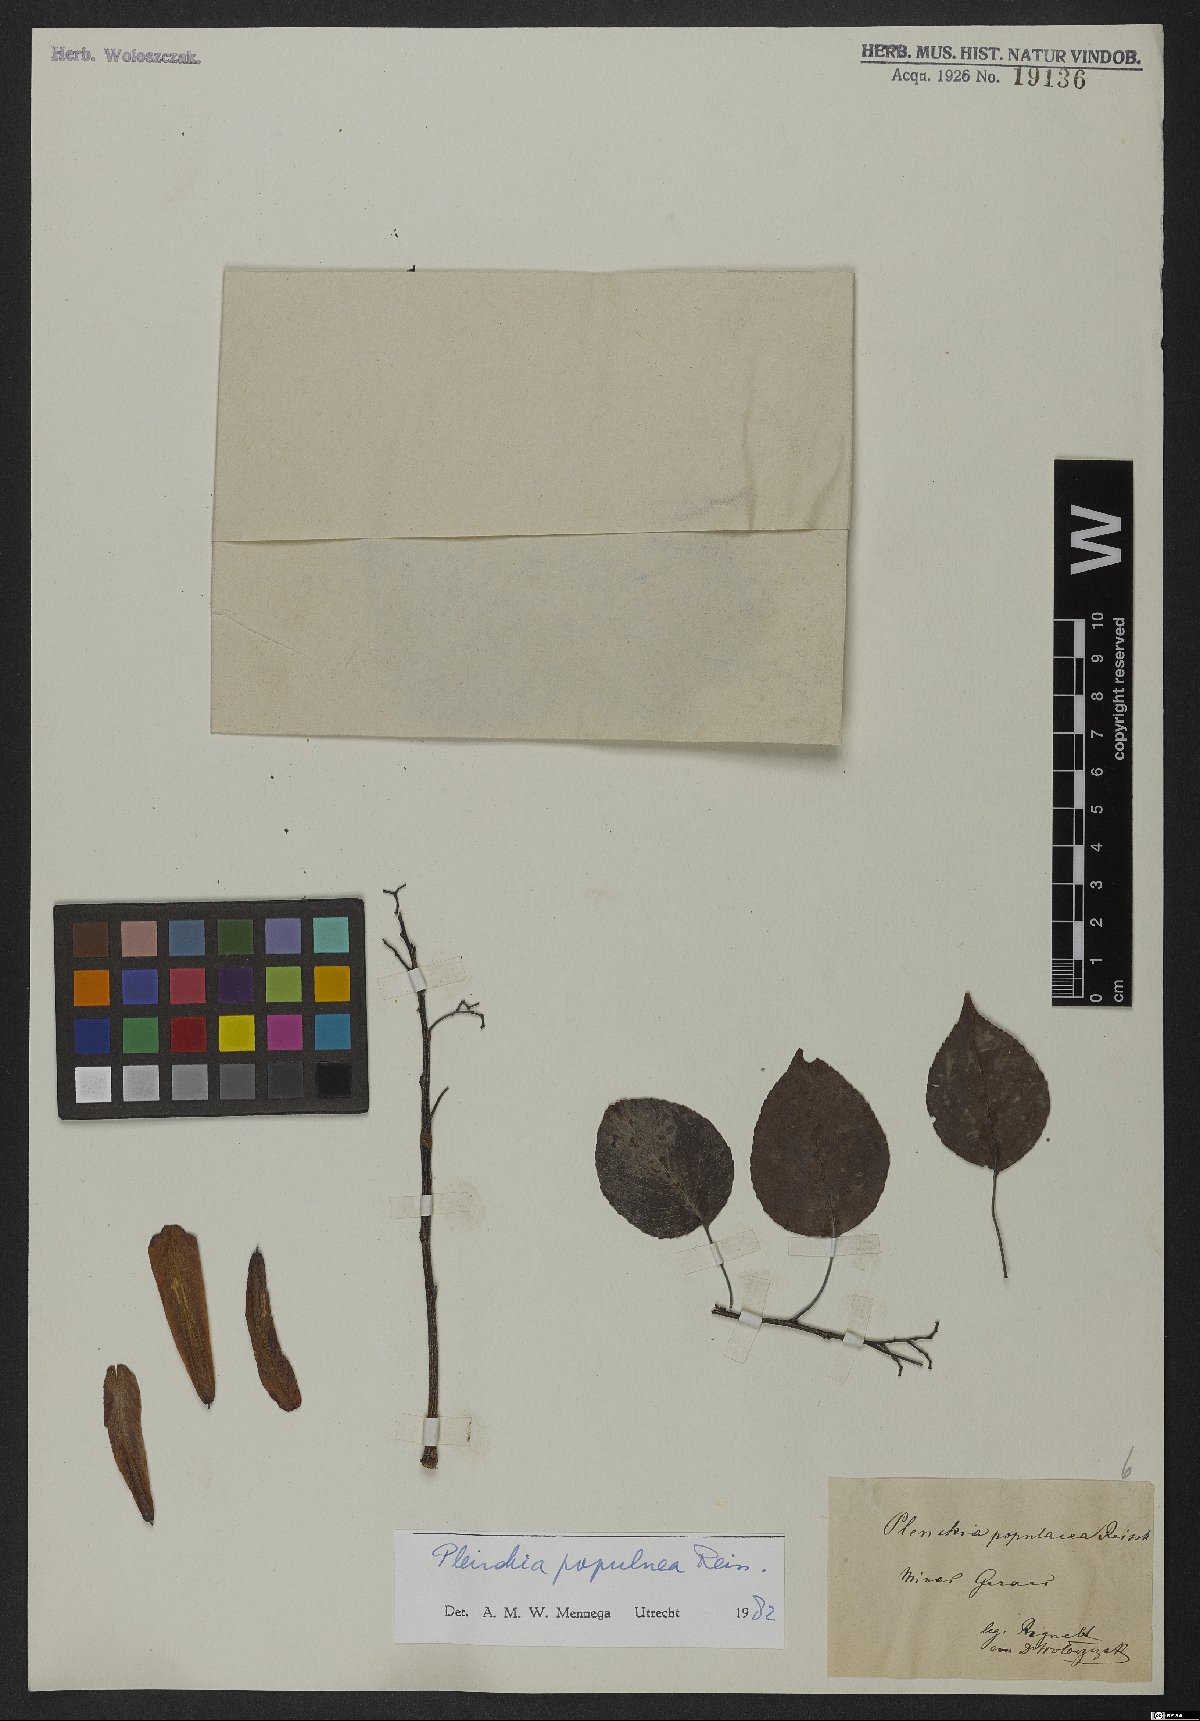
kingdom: Plantae
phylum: Tracheophyta
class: Magnoliopsida
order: Celastrales
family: Celastraceae
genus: Plenckia
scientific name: Plenckia populnea
